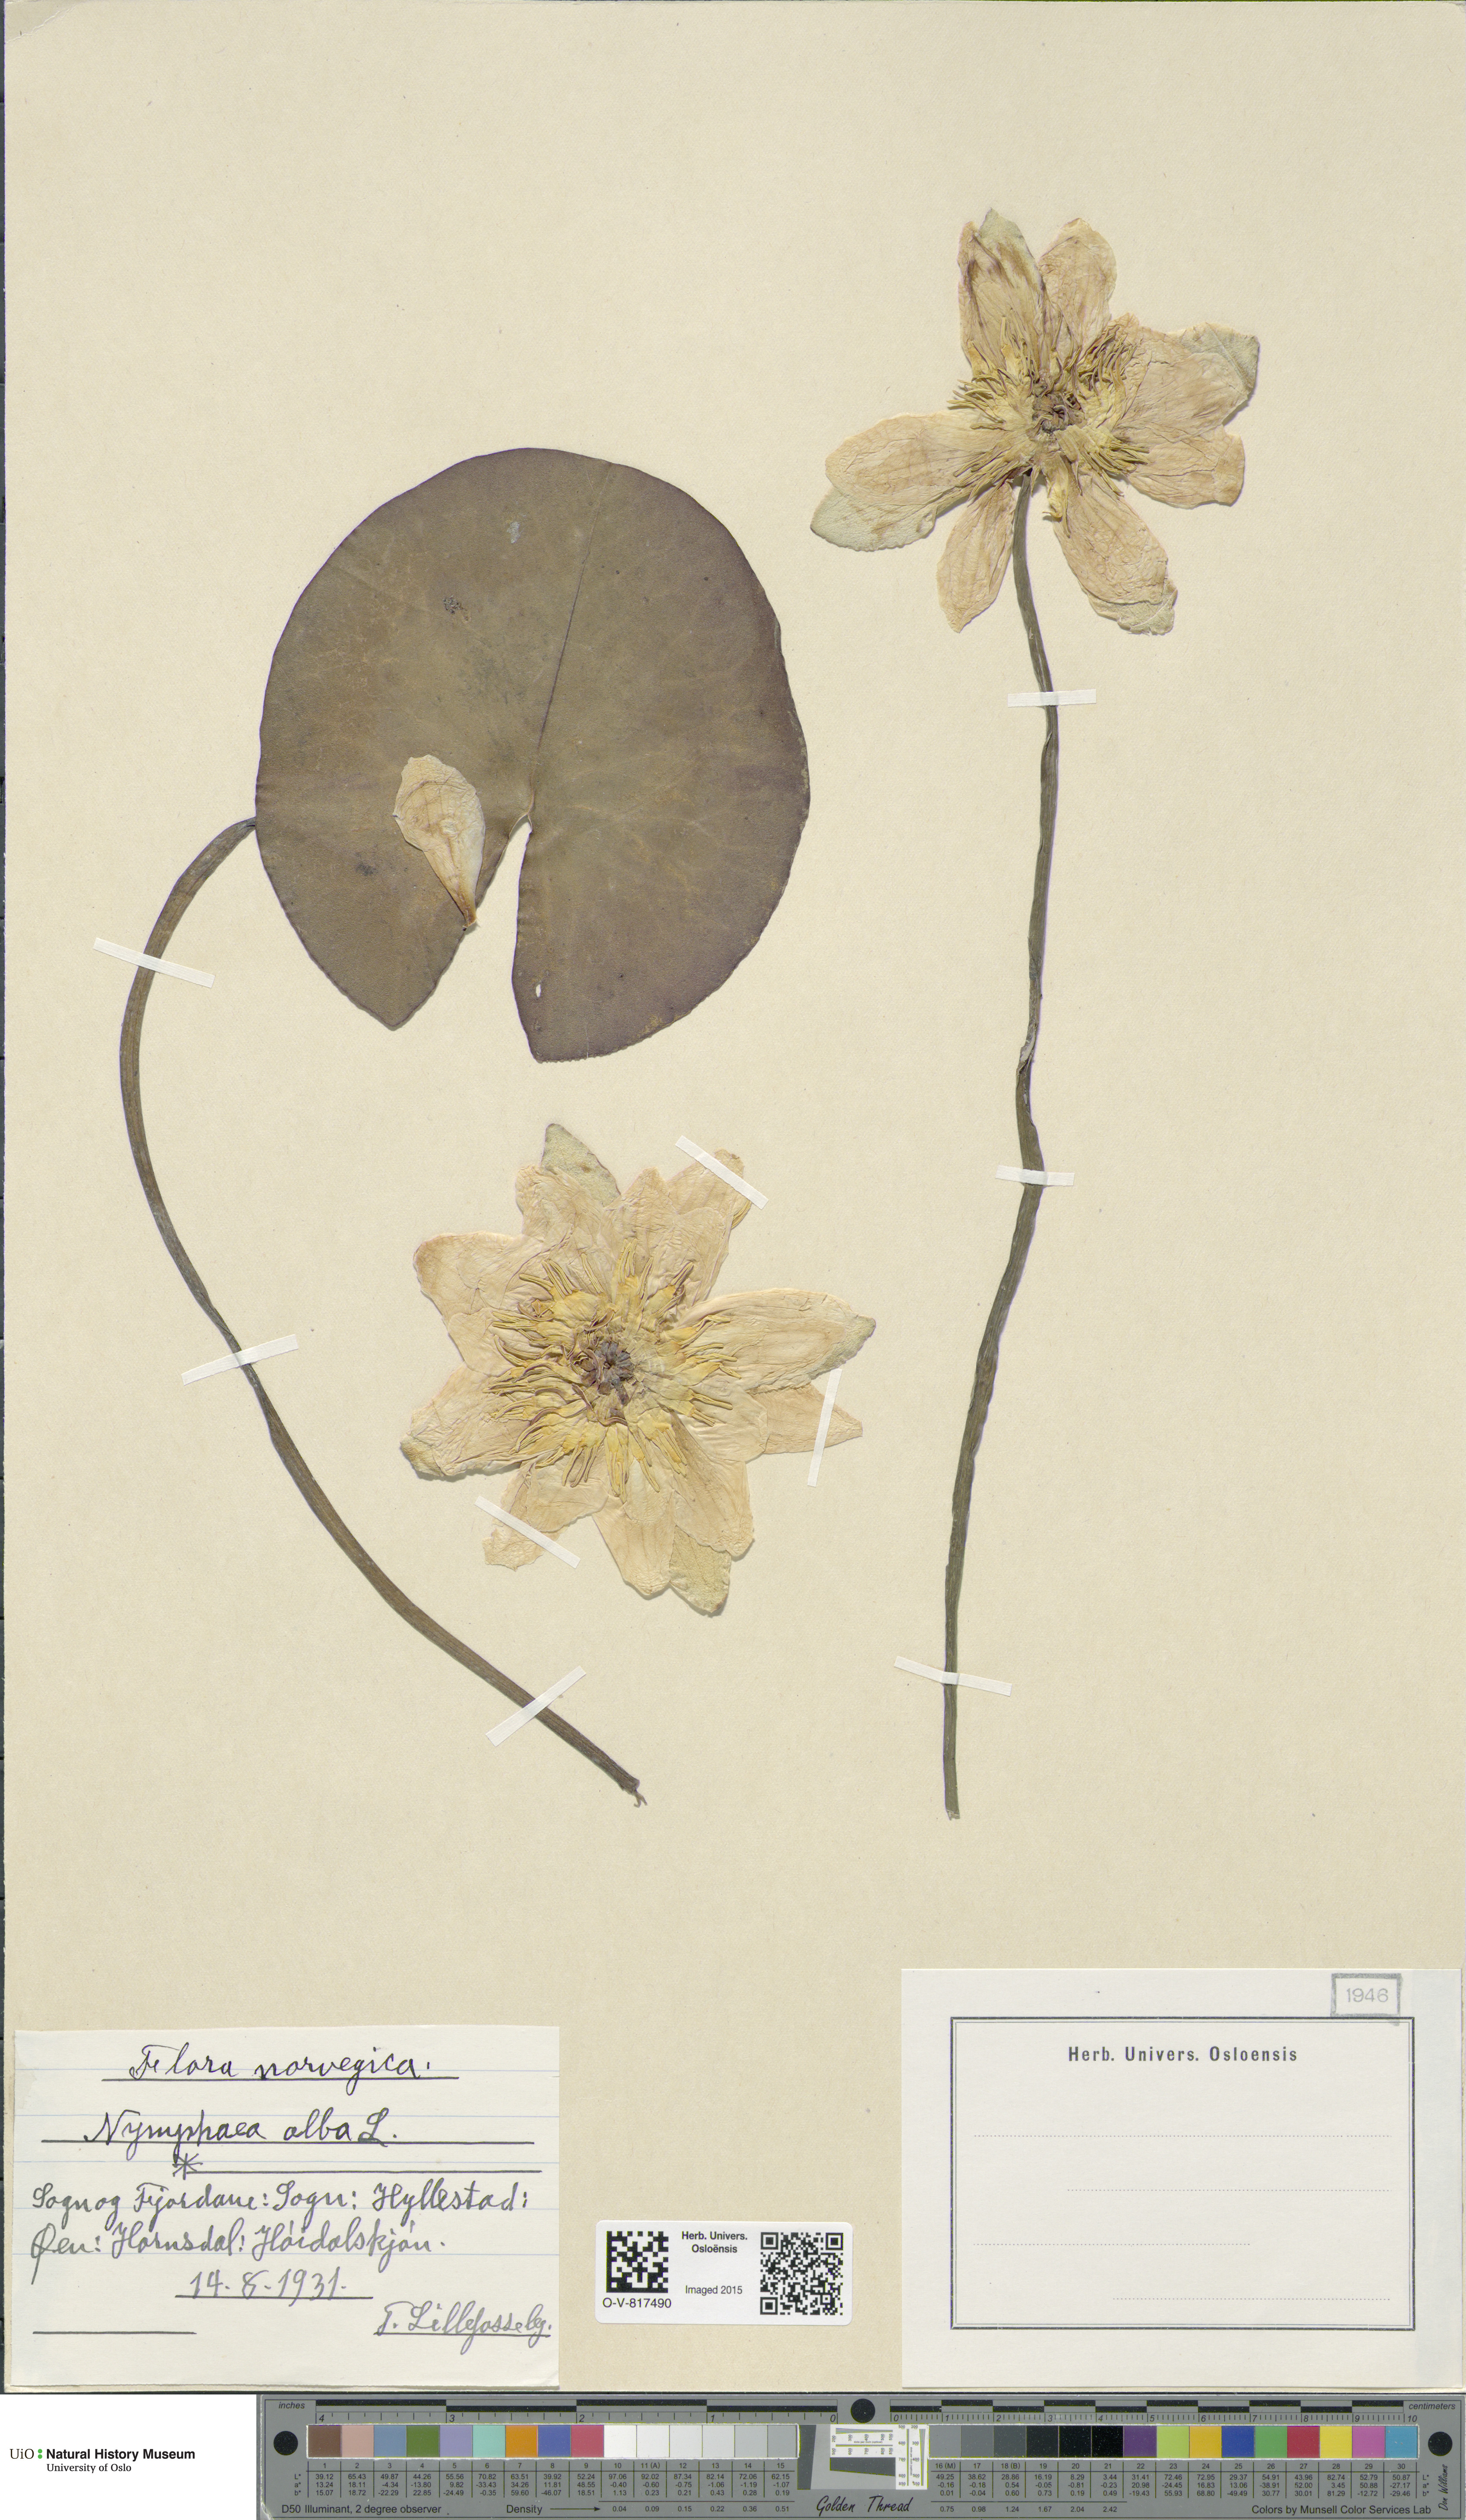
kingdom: Plantae
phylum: Tracheophyta
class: Magnoliopsida
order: Nymphaeales
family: Nymphaeaceae
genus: Nymphaea
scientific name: Nymphaea alba
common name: White water-lily
